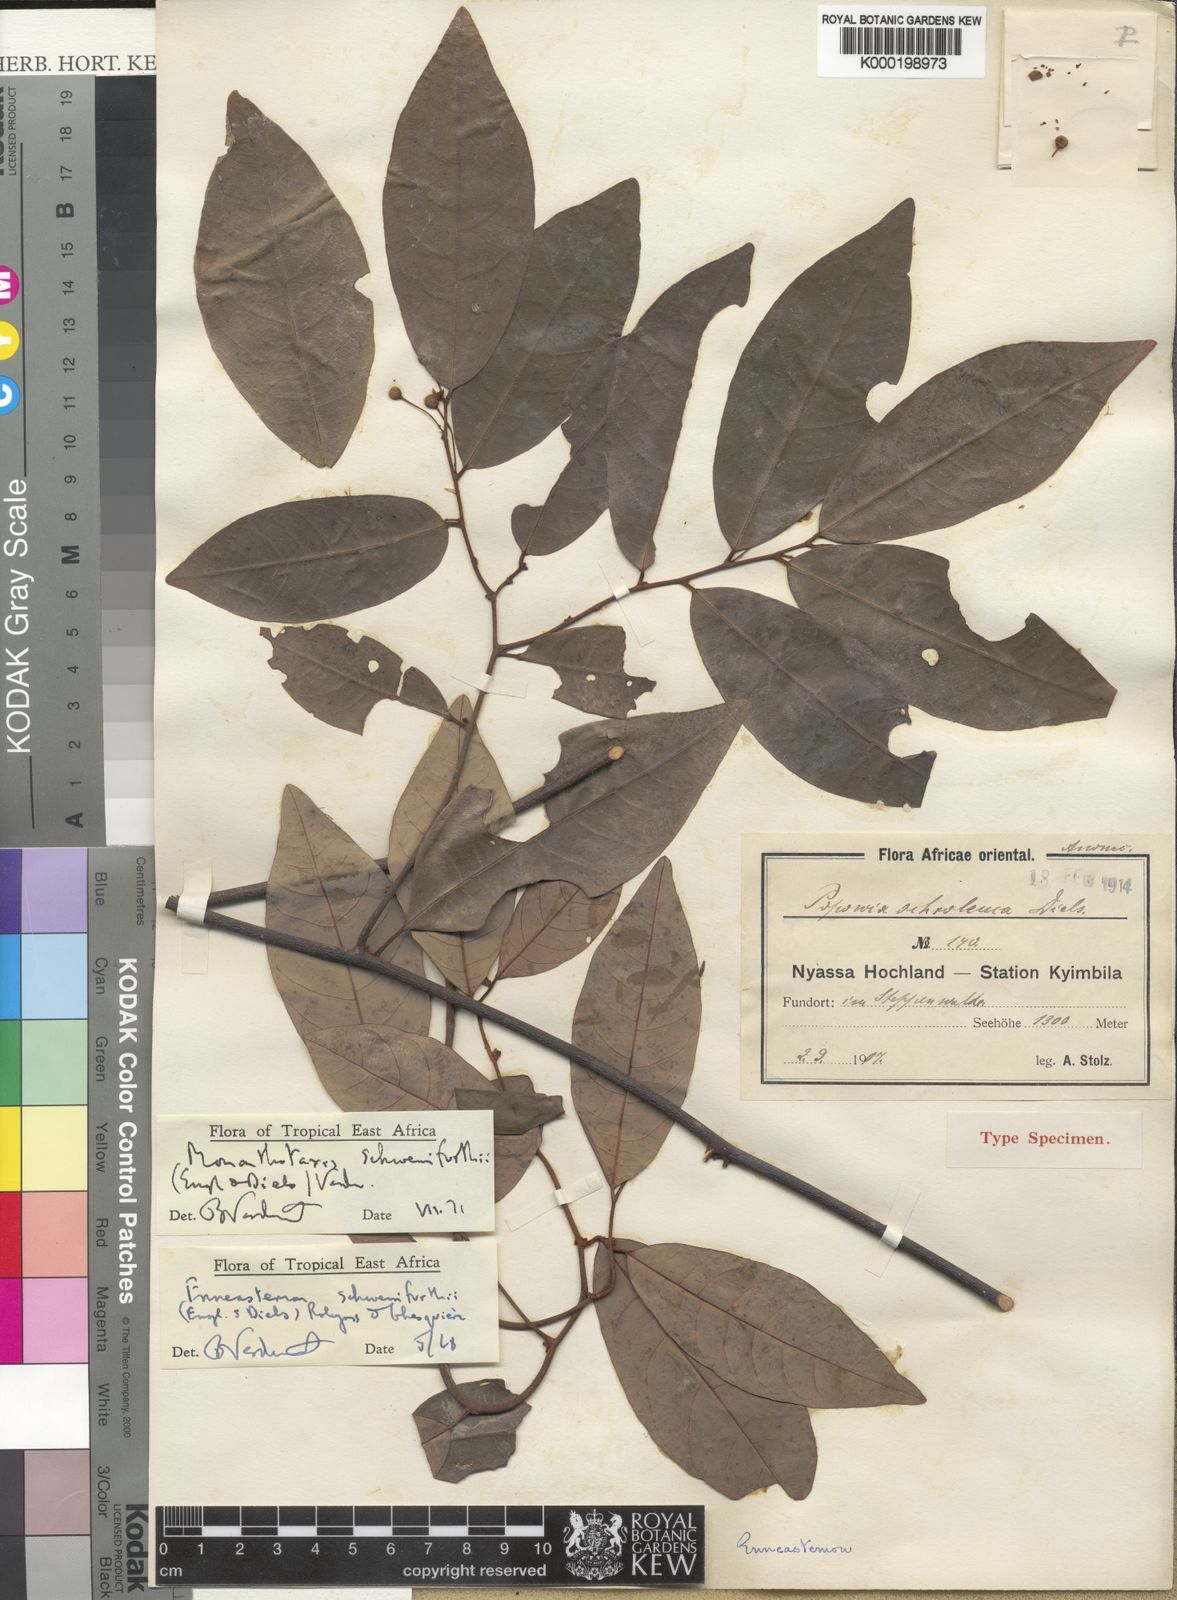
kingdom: Plantae
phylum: Tracheophyta
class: Magnoliopsida
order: Magnoliales
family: Annonaceae
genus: Monanthotaxis
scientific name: Monanthotaxis schweinfurthii
